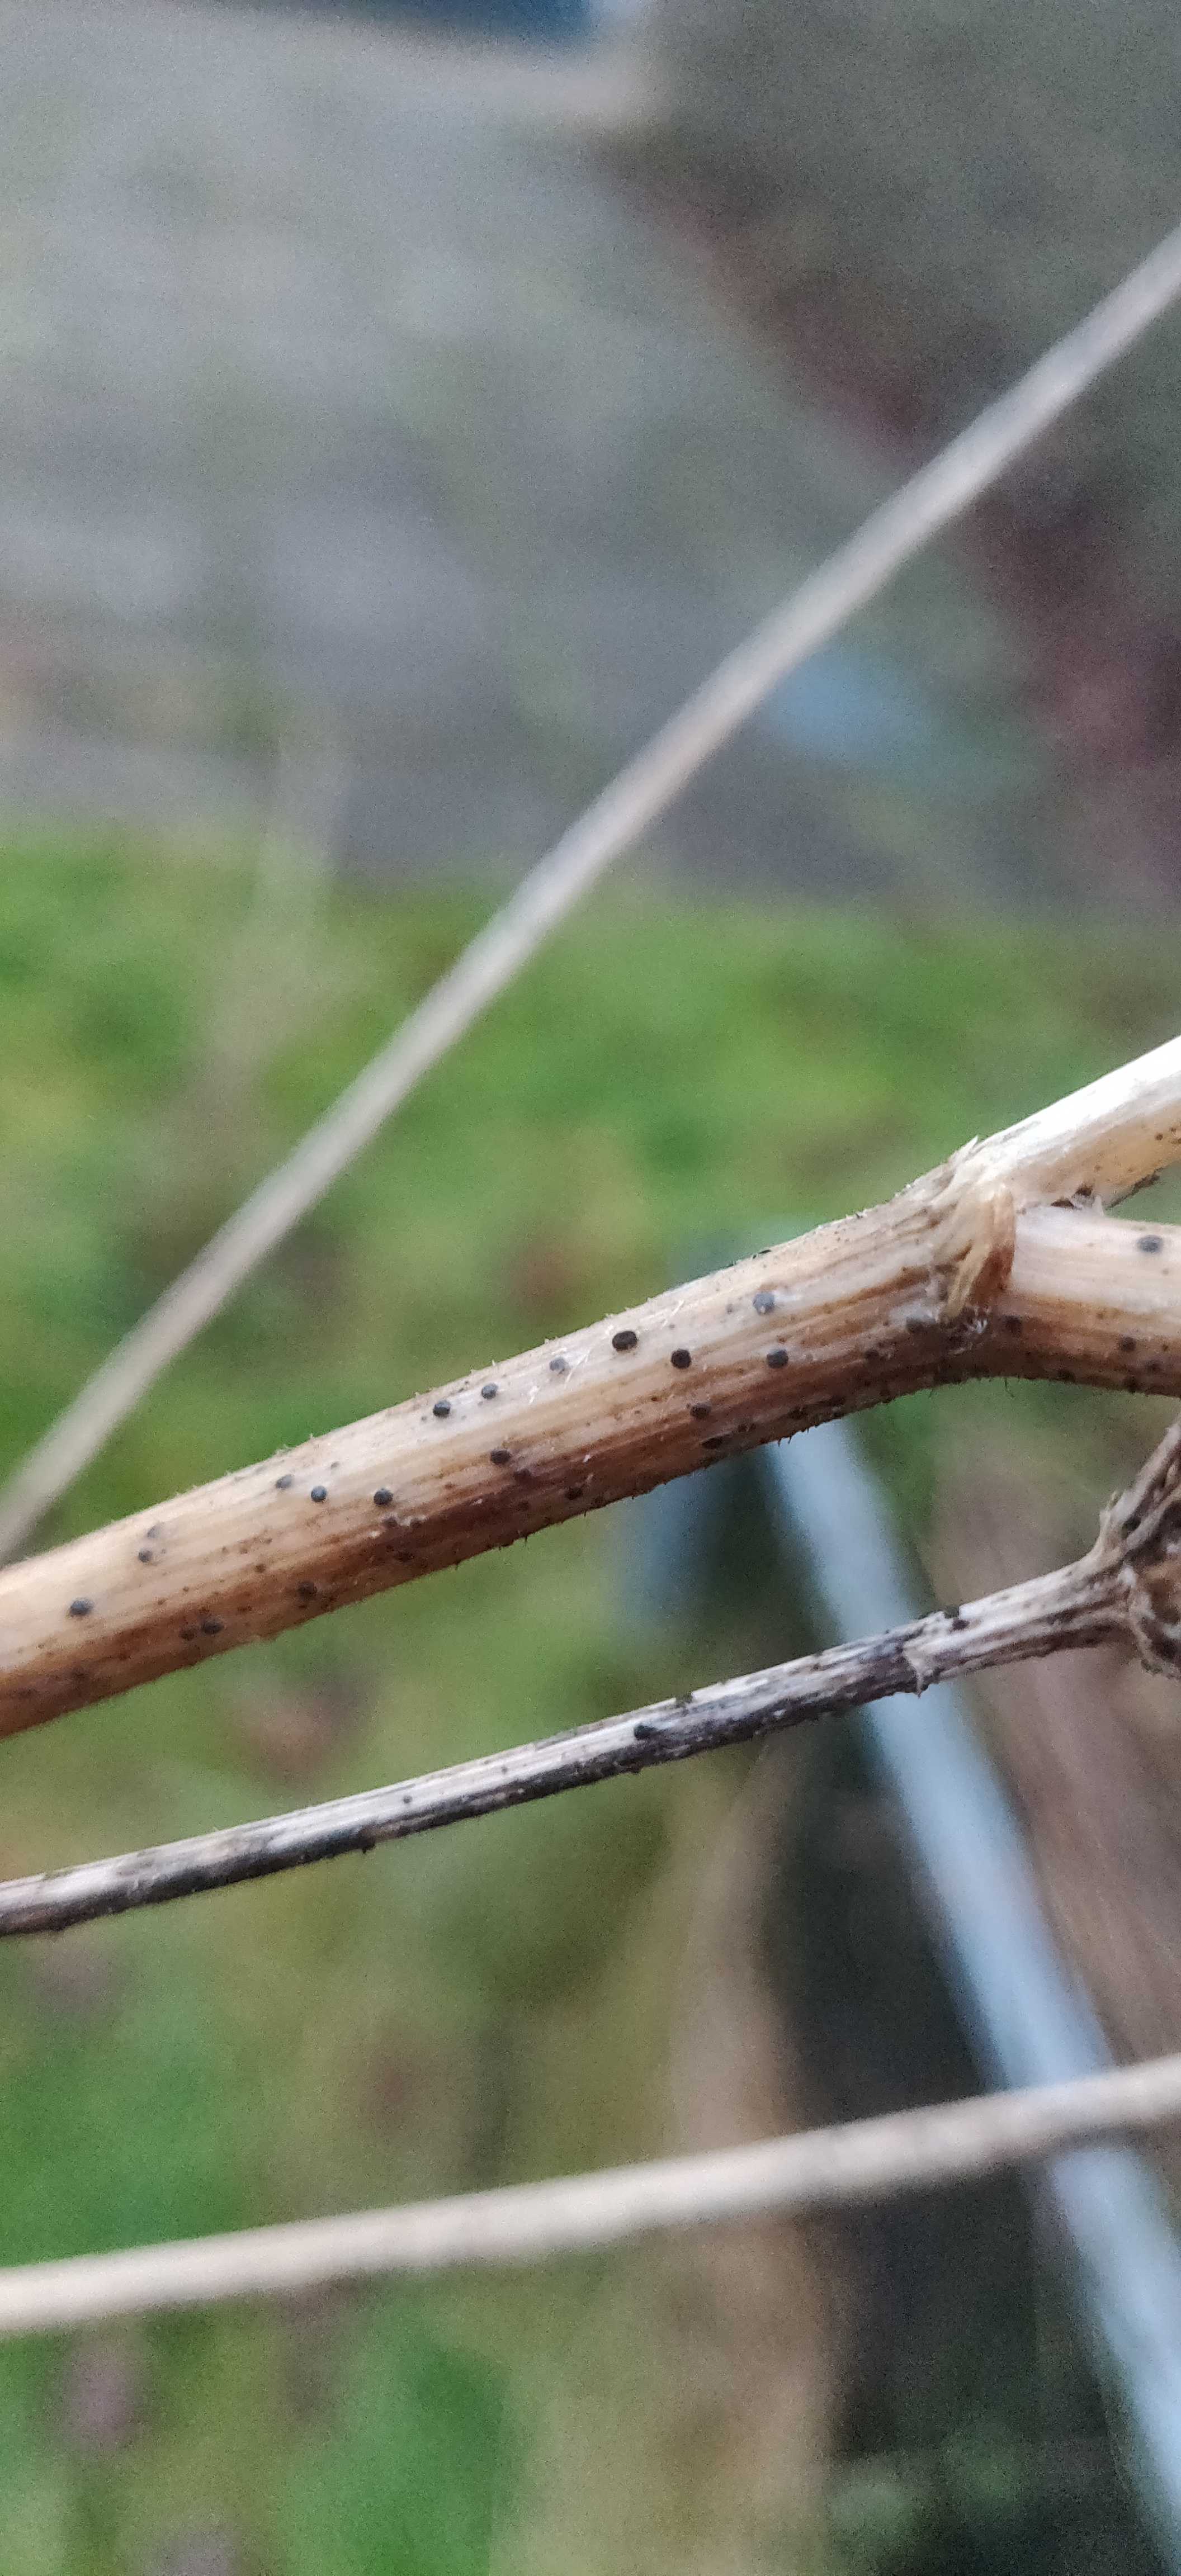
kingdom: Fungi
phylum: Ascomycota
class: Leotiomycetes
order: Helotiales
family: Heterosphaeriaceae
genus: Heterosphaeria
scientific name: Heterosphaeria
